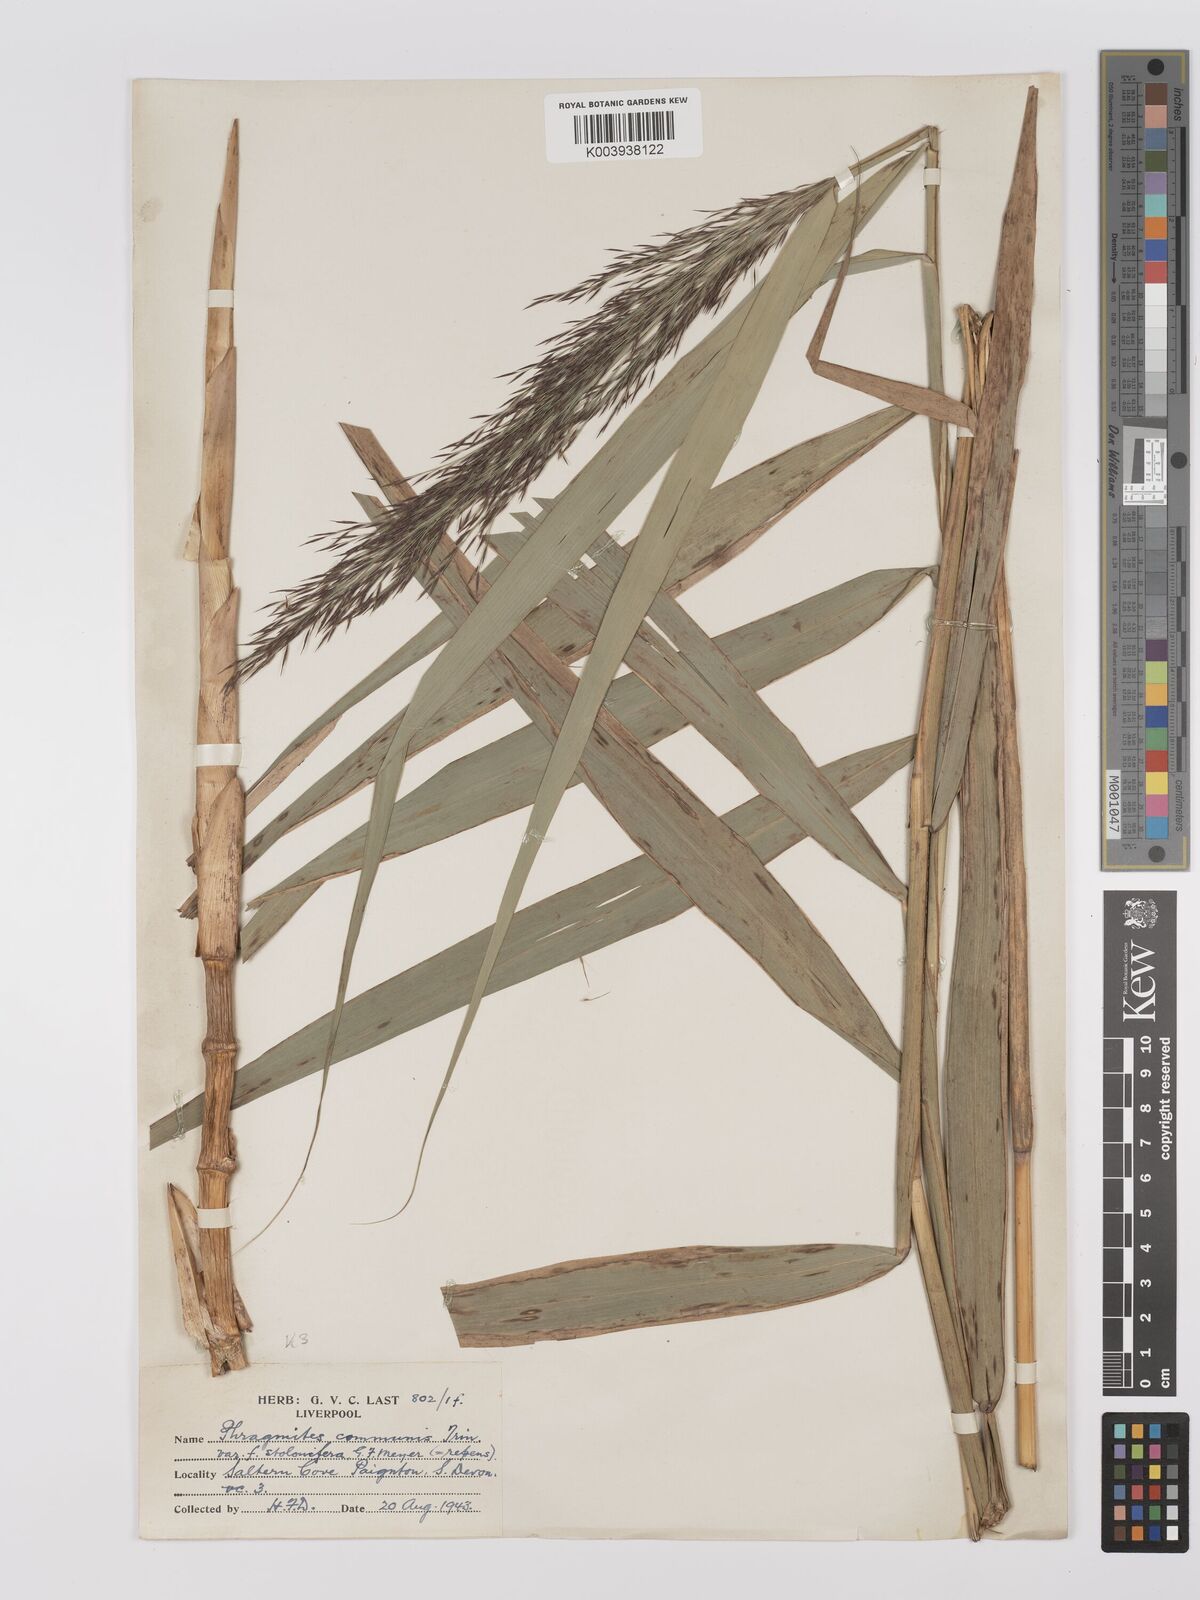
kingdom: Plantae
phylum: Tracheophyta
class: Liliopsida
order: Poales
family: Poaceae
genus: Phragmites
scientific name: Phragmites australis
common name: Common reed
